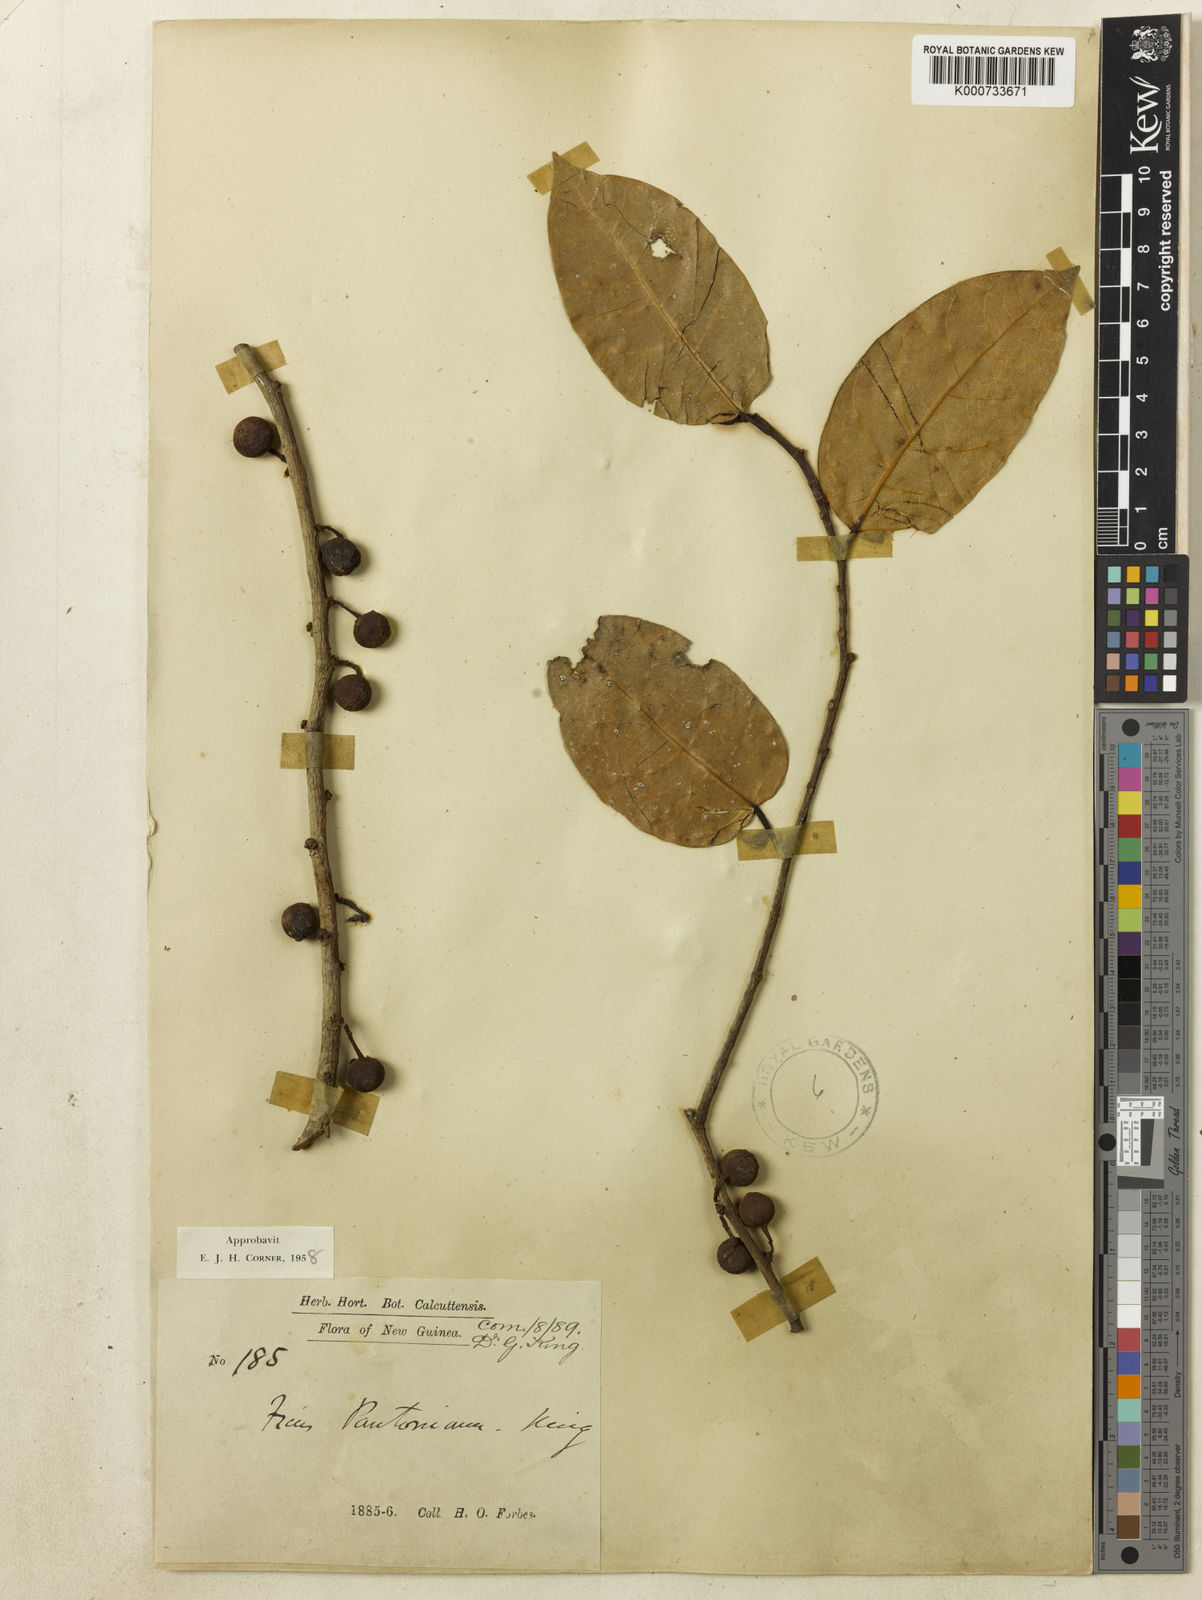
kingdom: Plantae
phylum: Tracheophyta
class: Magnoliopsida
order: Rosales
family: Moraceae
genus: Ficus
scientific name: Ficus pantoniana
